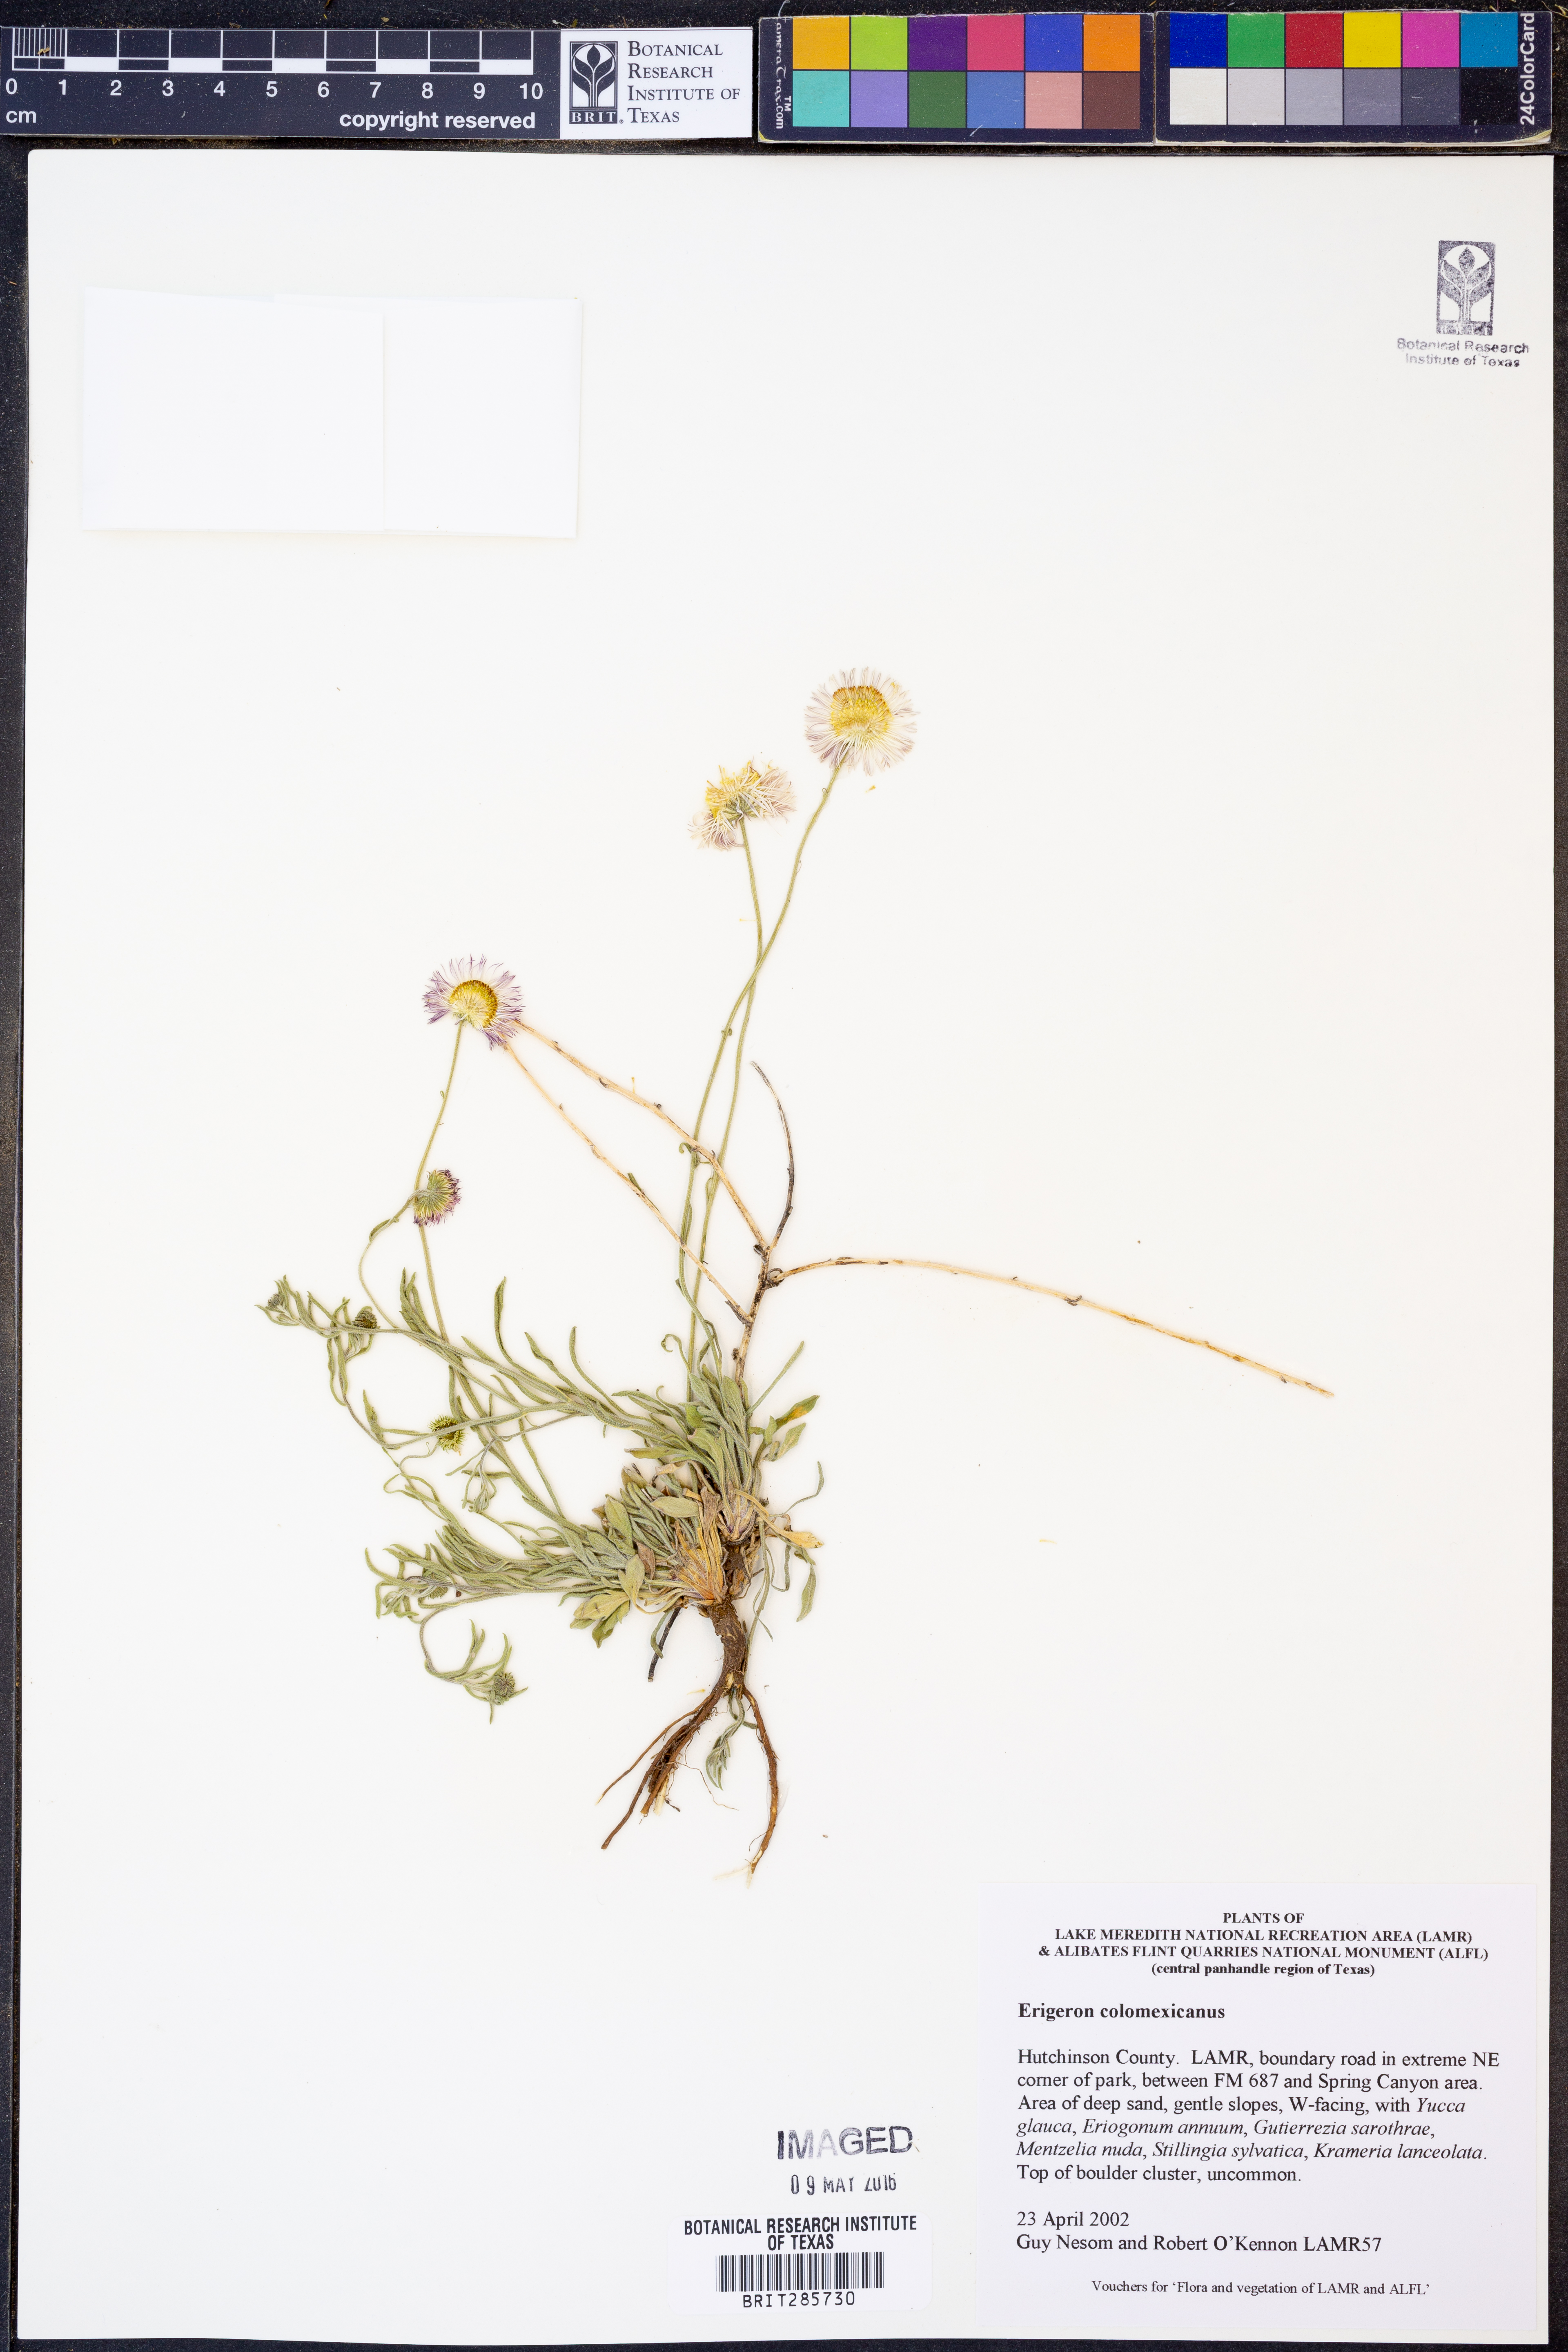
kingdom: Plantae
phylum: Tracheophyta
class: Magnoliopsida
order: Asterales
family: Asteraceae
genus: Erigeron
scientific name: Erigeron tracyi
